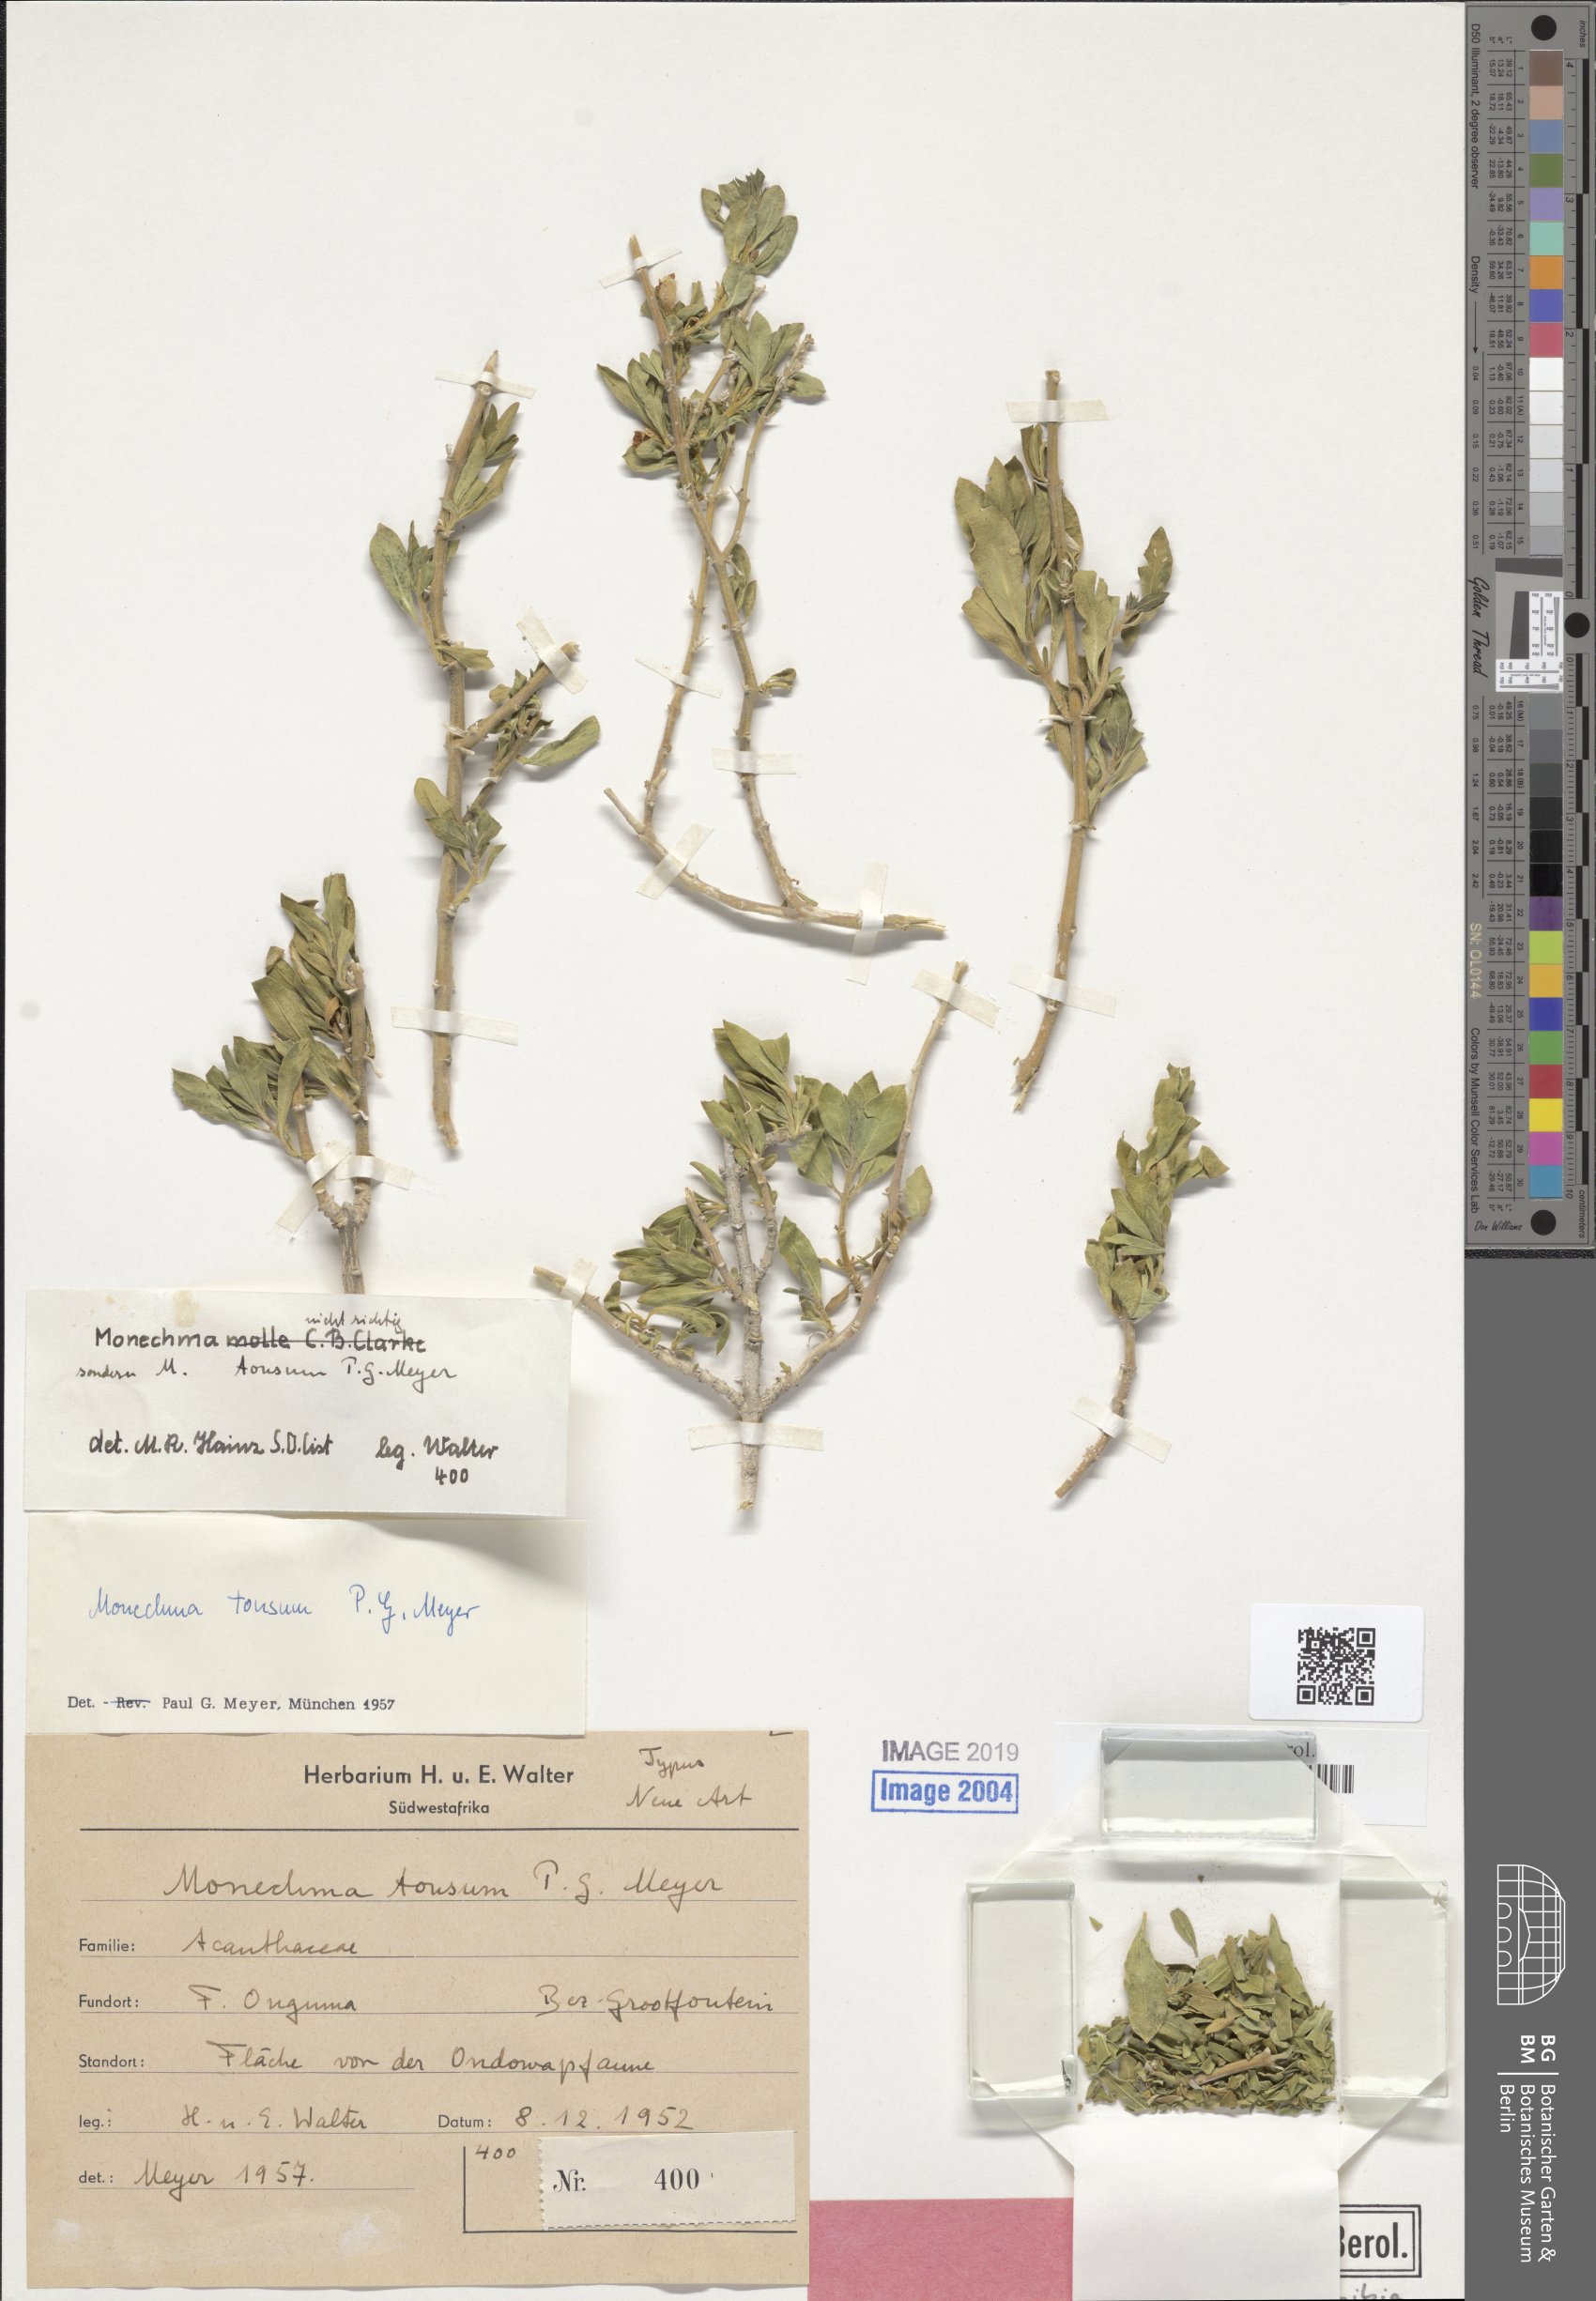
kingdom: Plantae
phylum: Tracheophyta
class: Magnoliopsida
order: Lamiales
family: Acanthaceae
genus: Monechma
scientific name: Monechma tonsum
